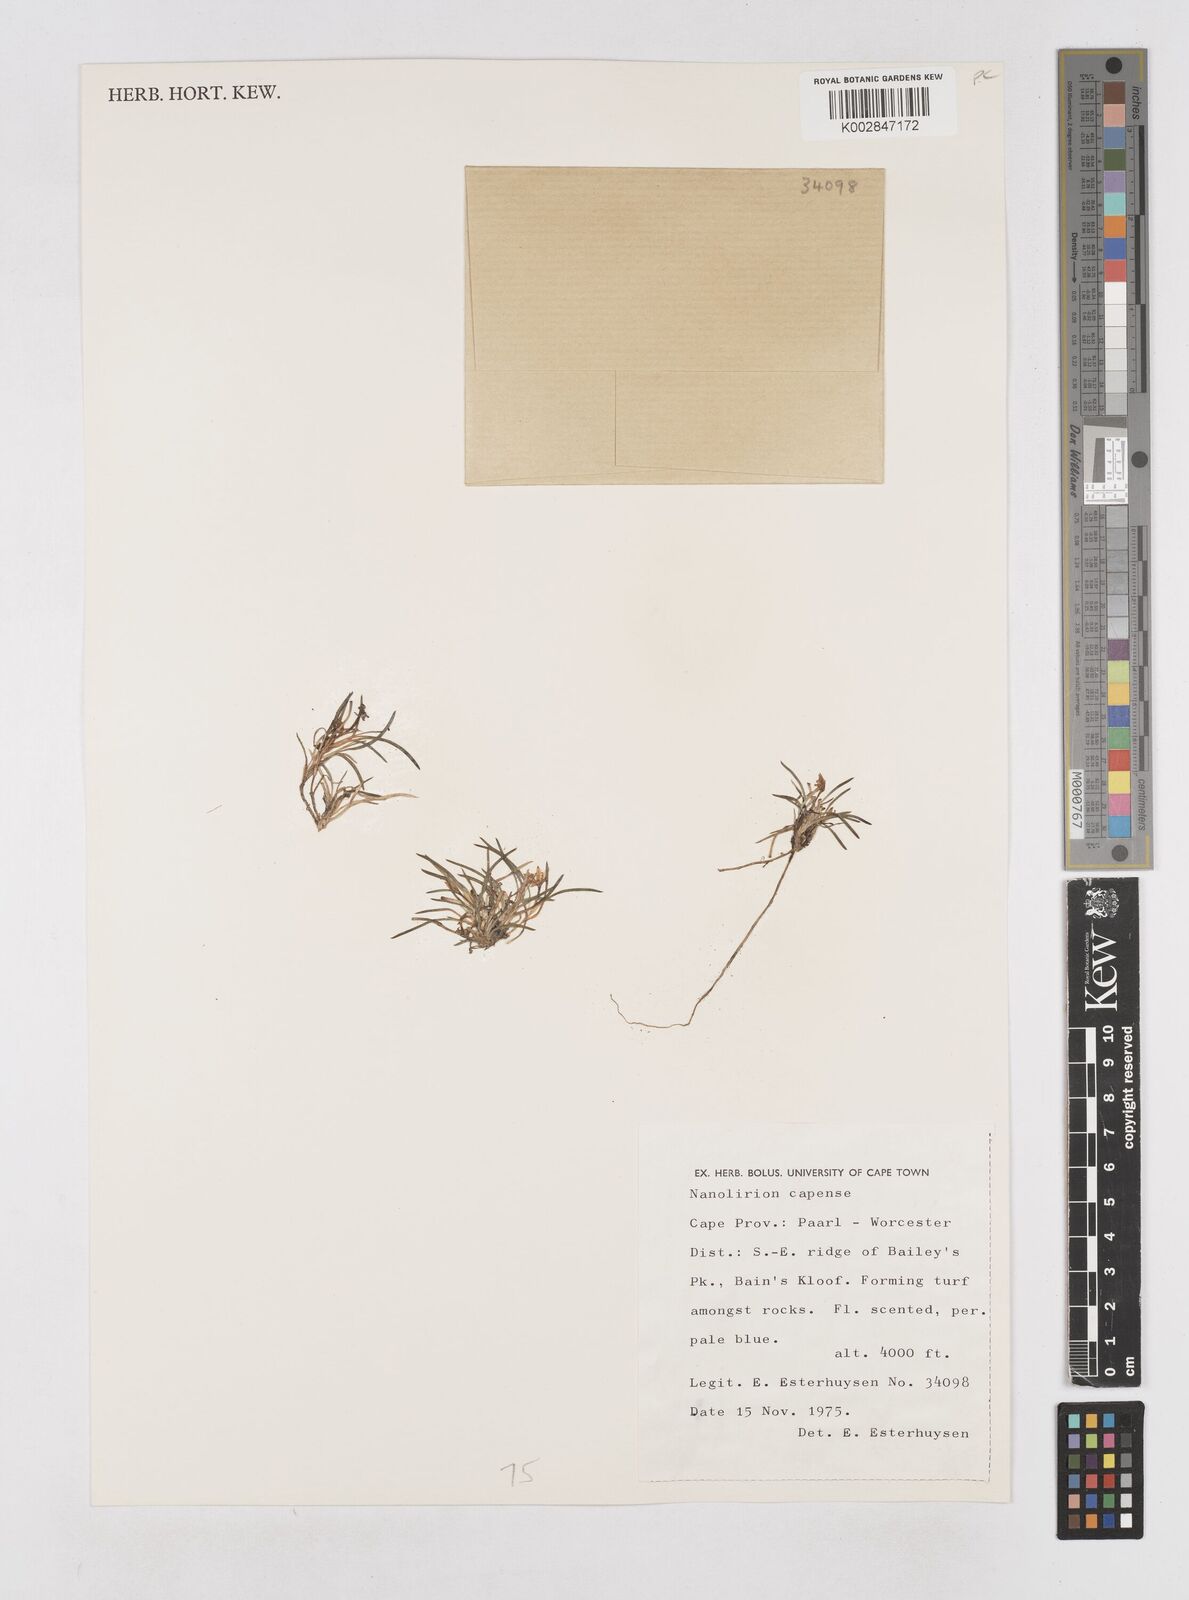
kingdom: Plantae
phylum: Tracheophyta
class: Liliopsida
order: Asparagales
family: Asphodelaceae
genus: Caesia
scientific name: Caesia capensis
